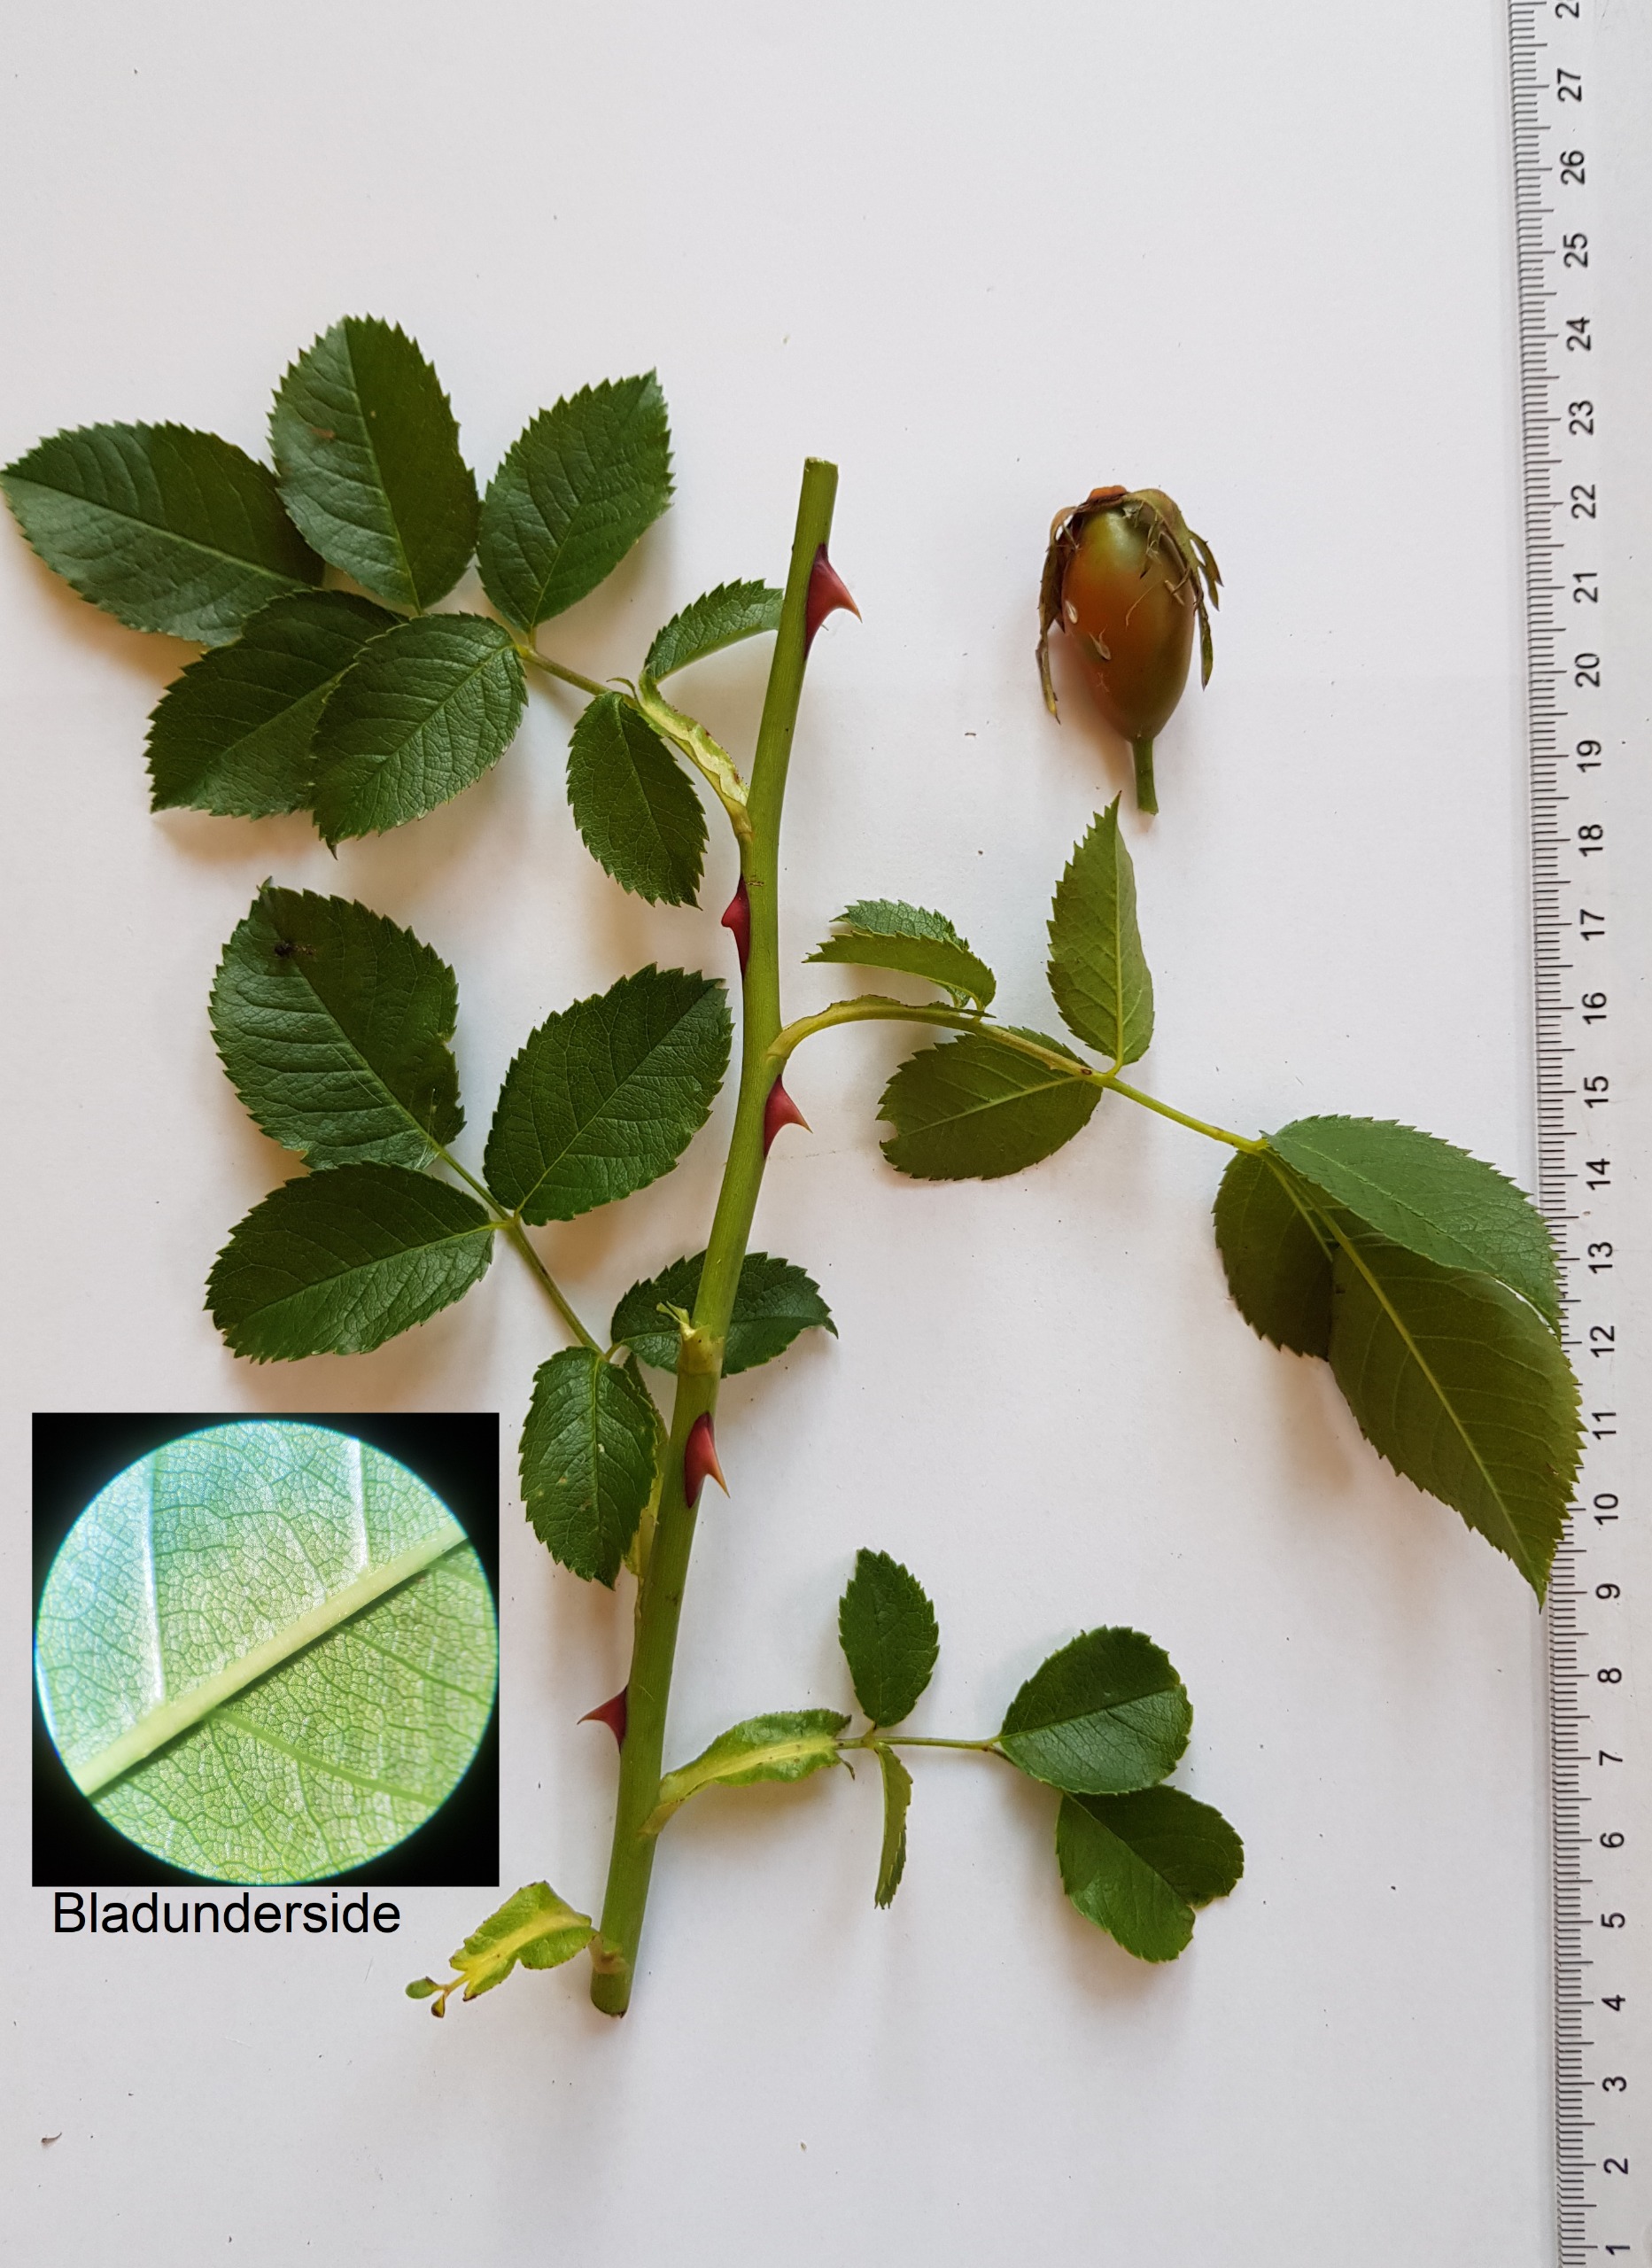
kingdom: Plantae
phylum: Tracheophyta
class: Magnoliopsida
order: Rosales
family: Rosaceae
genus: Rosa
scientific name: Rosa canina
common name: Glat hunde-rose
